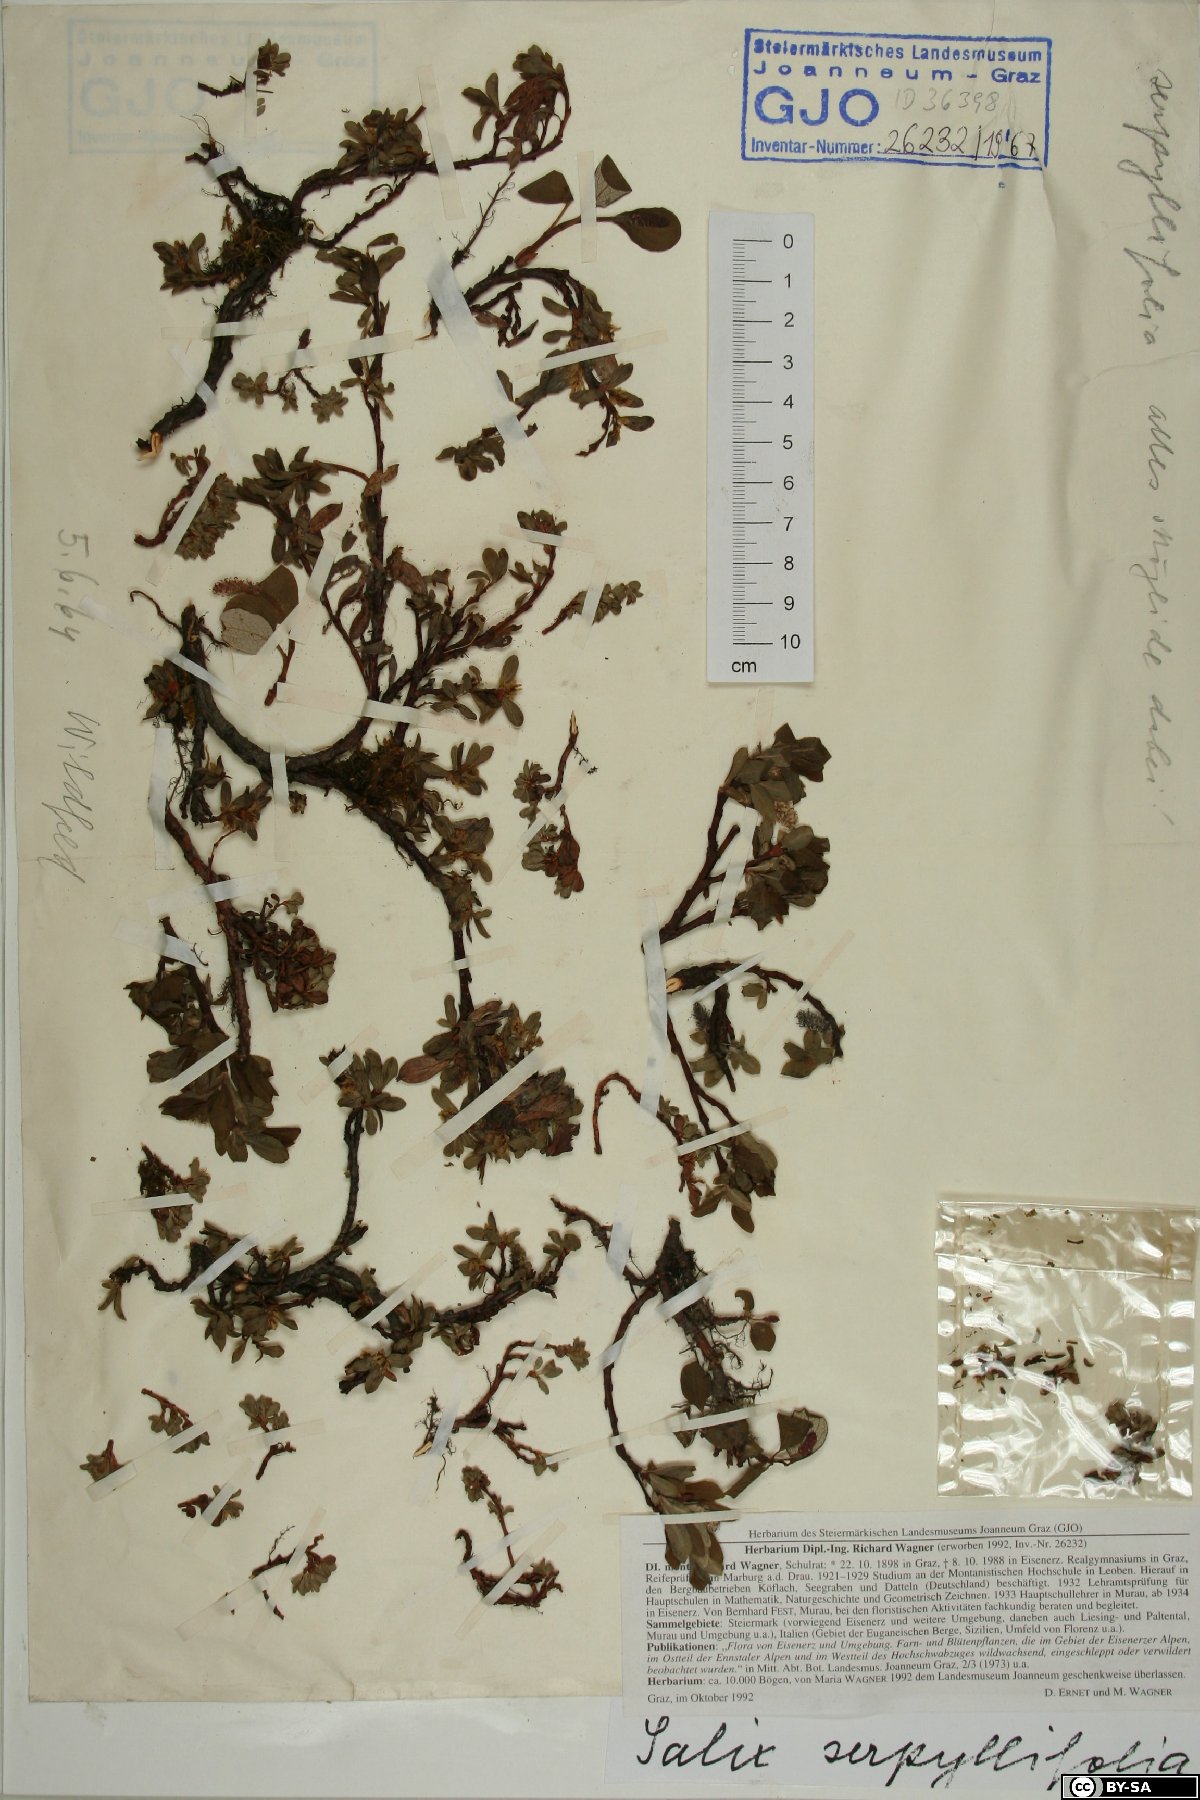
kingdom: Plantae
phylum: Tracheophyta
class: Magnoliopsida
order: Malpighiales
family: Salicaceae
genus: Salix
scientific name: Salix serpillifolia
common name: Thyme-leaf willow
